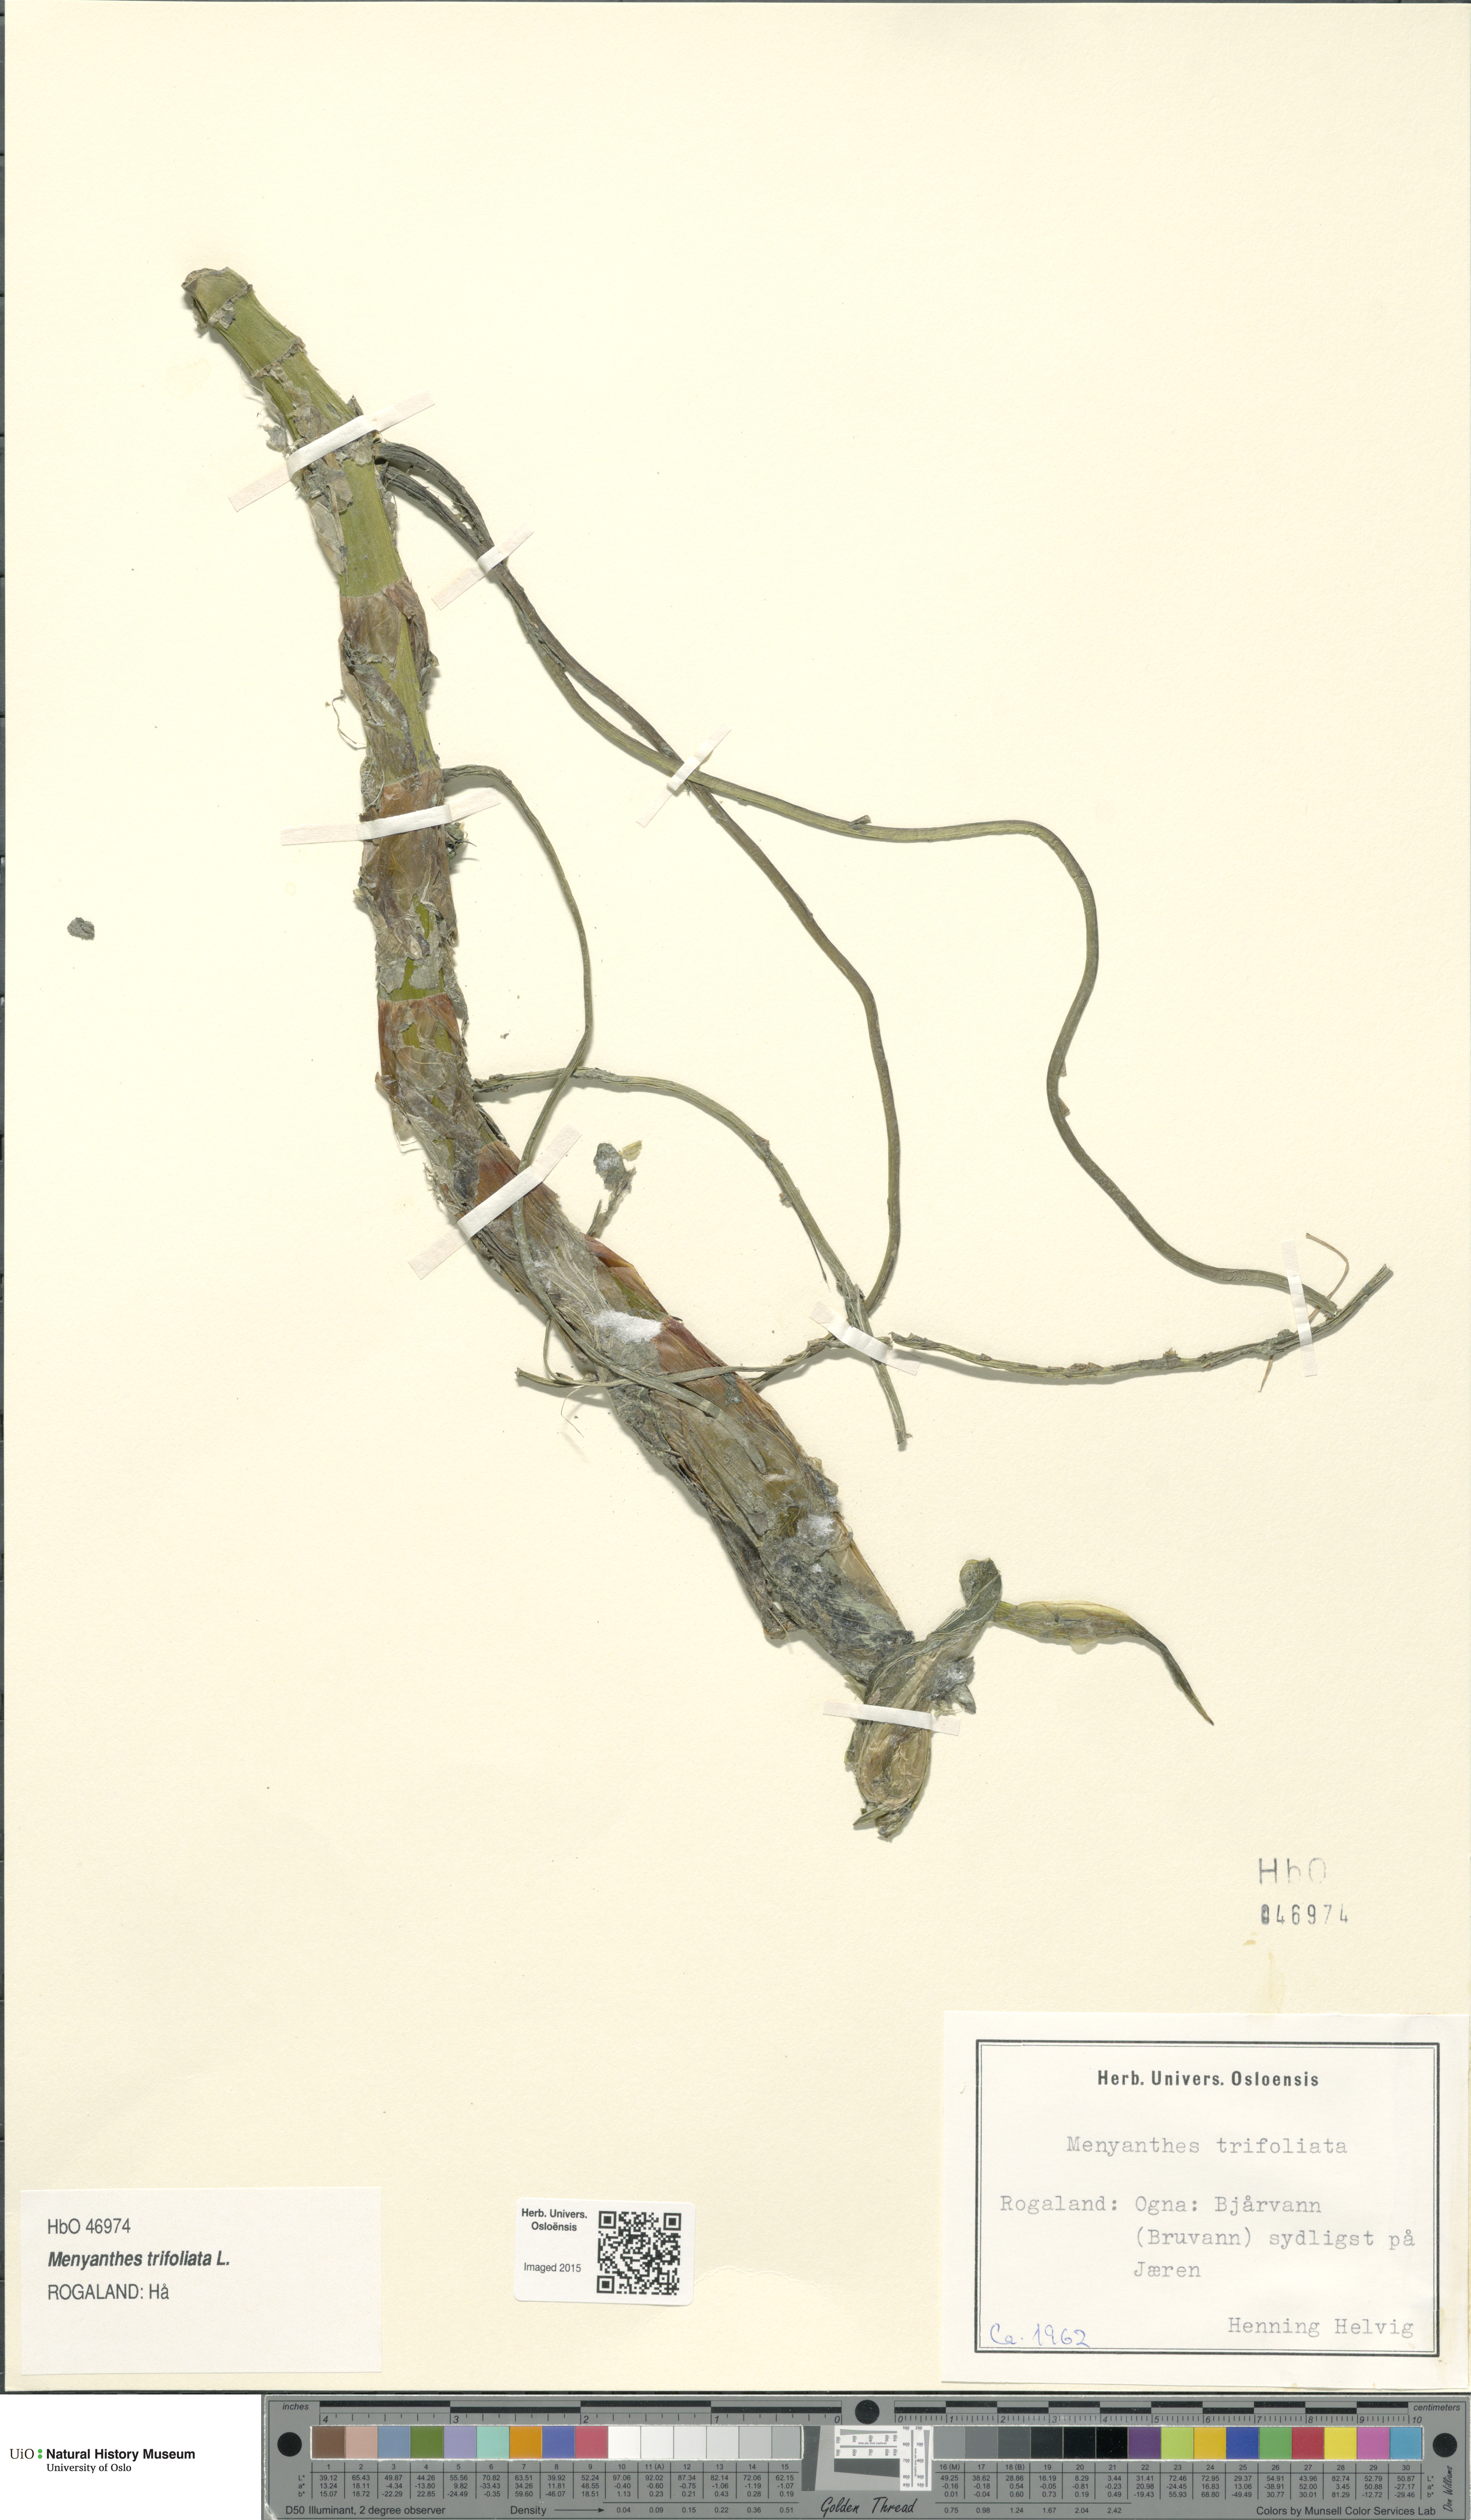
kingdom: Plantae
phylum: Tracheophyta
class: Magnoliopsida
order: Asterales
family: Menyanthaceae
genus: Menyanthes
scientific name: Menyanthes trifoliata
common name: Bogbean
